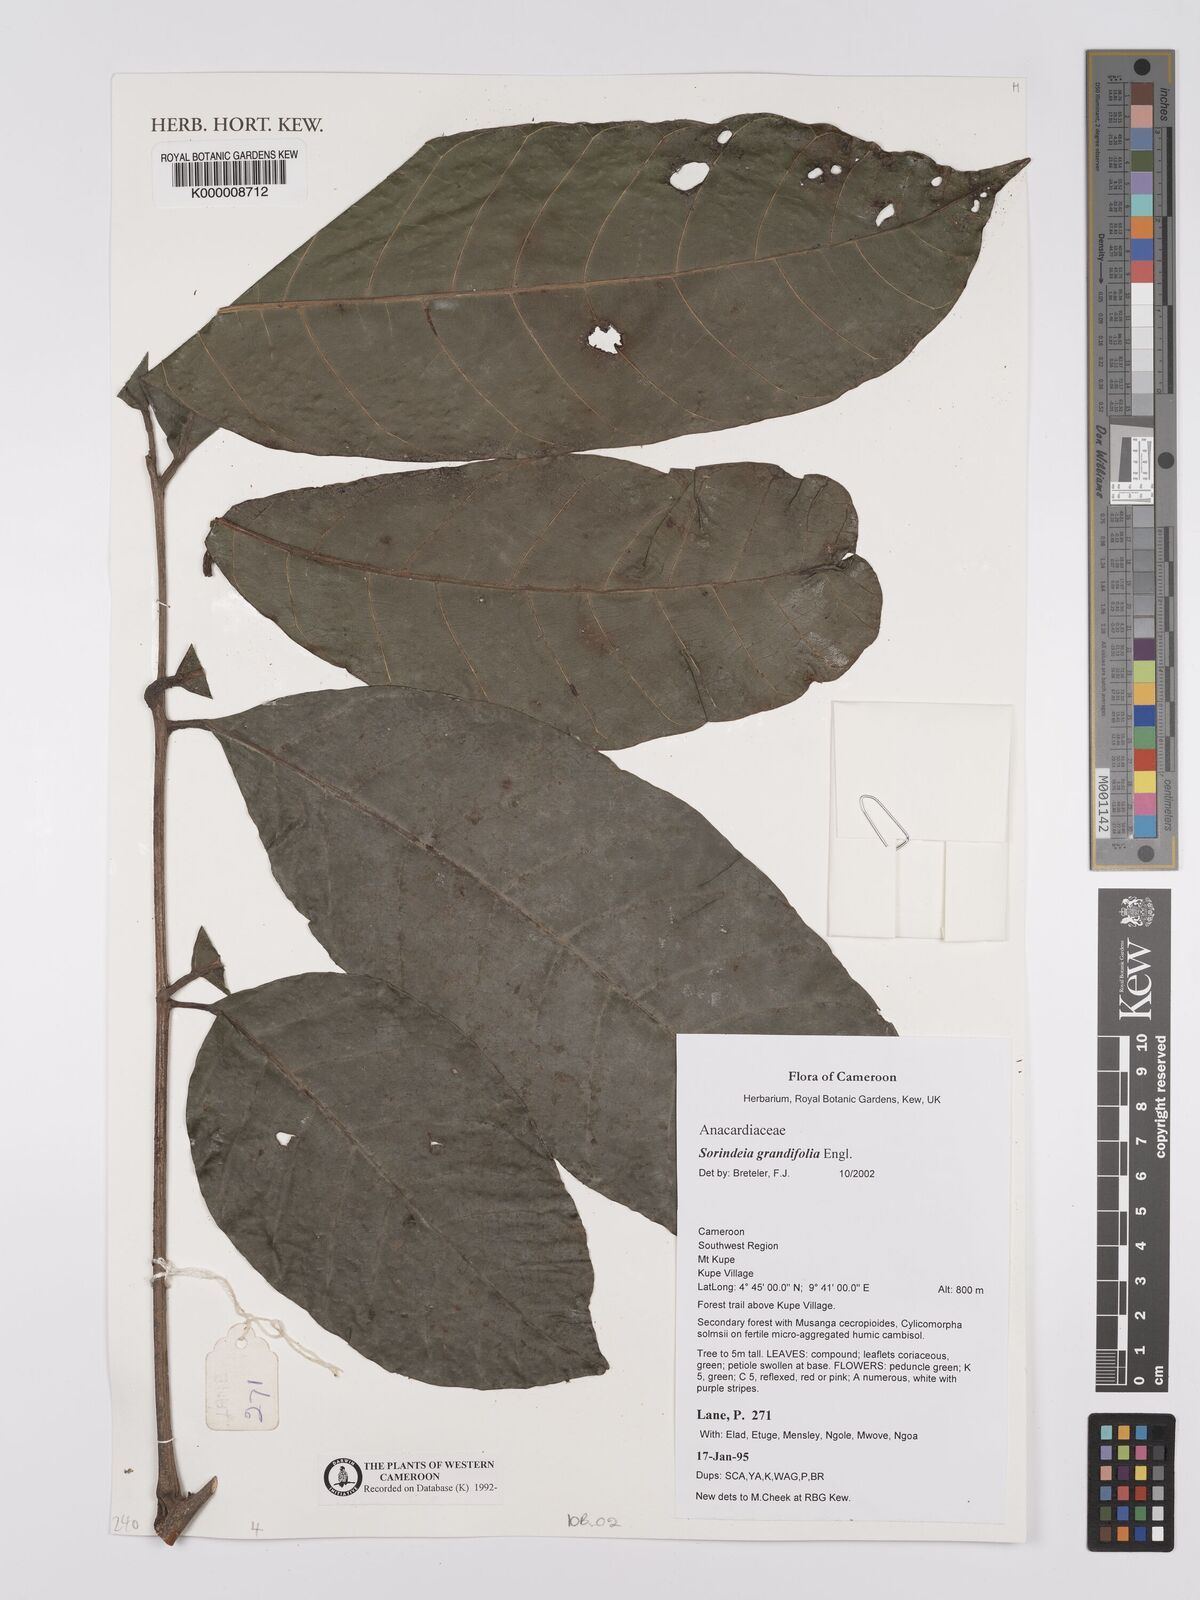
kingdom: Plantae
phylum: Tracheophyta
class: Magnoliopsida
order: Sapindales
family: Anacardiaceae
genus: Sorindeia
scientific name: Sorindeia grandifolia
